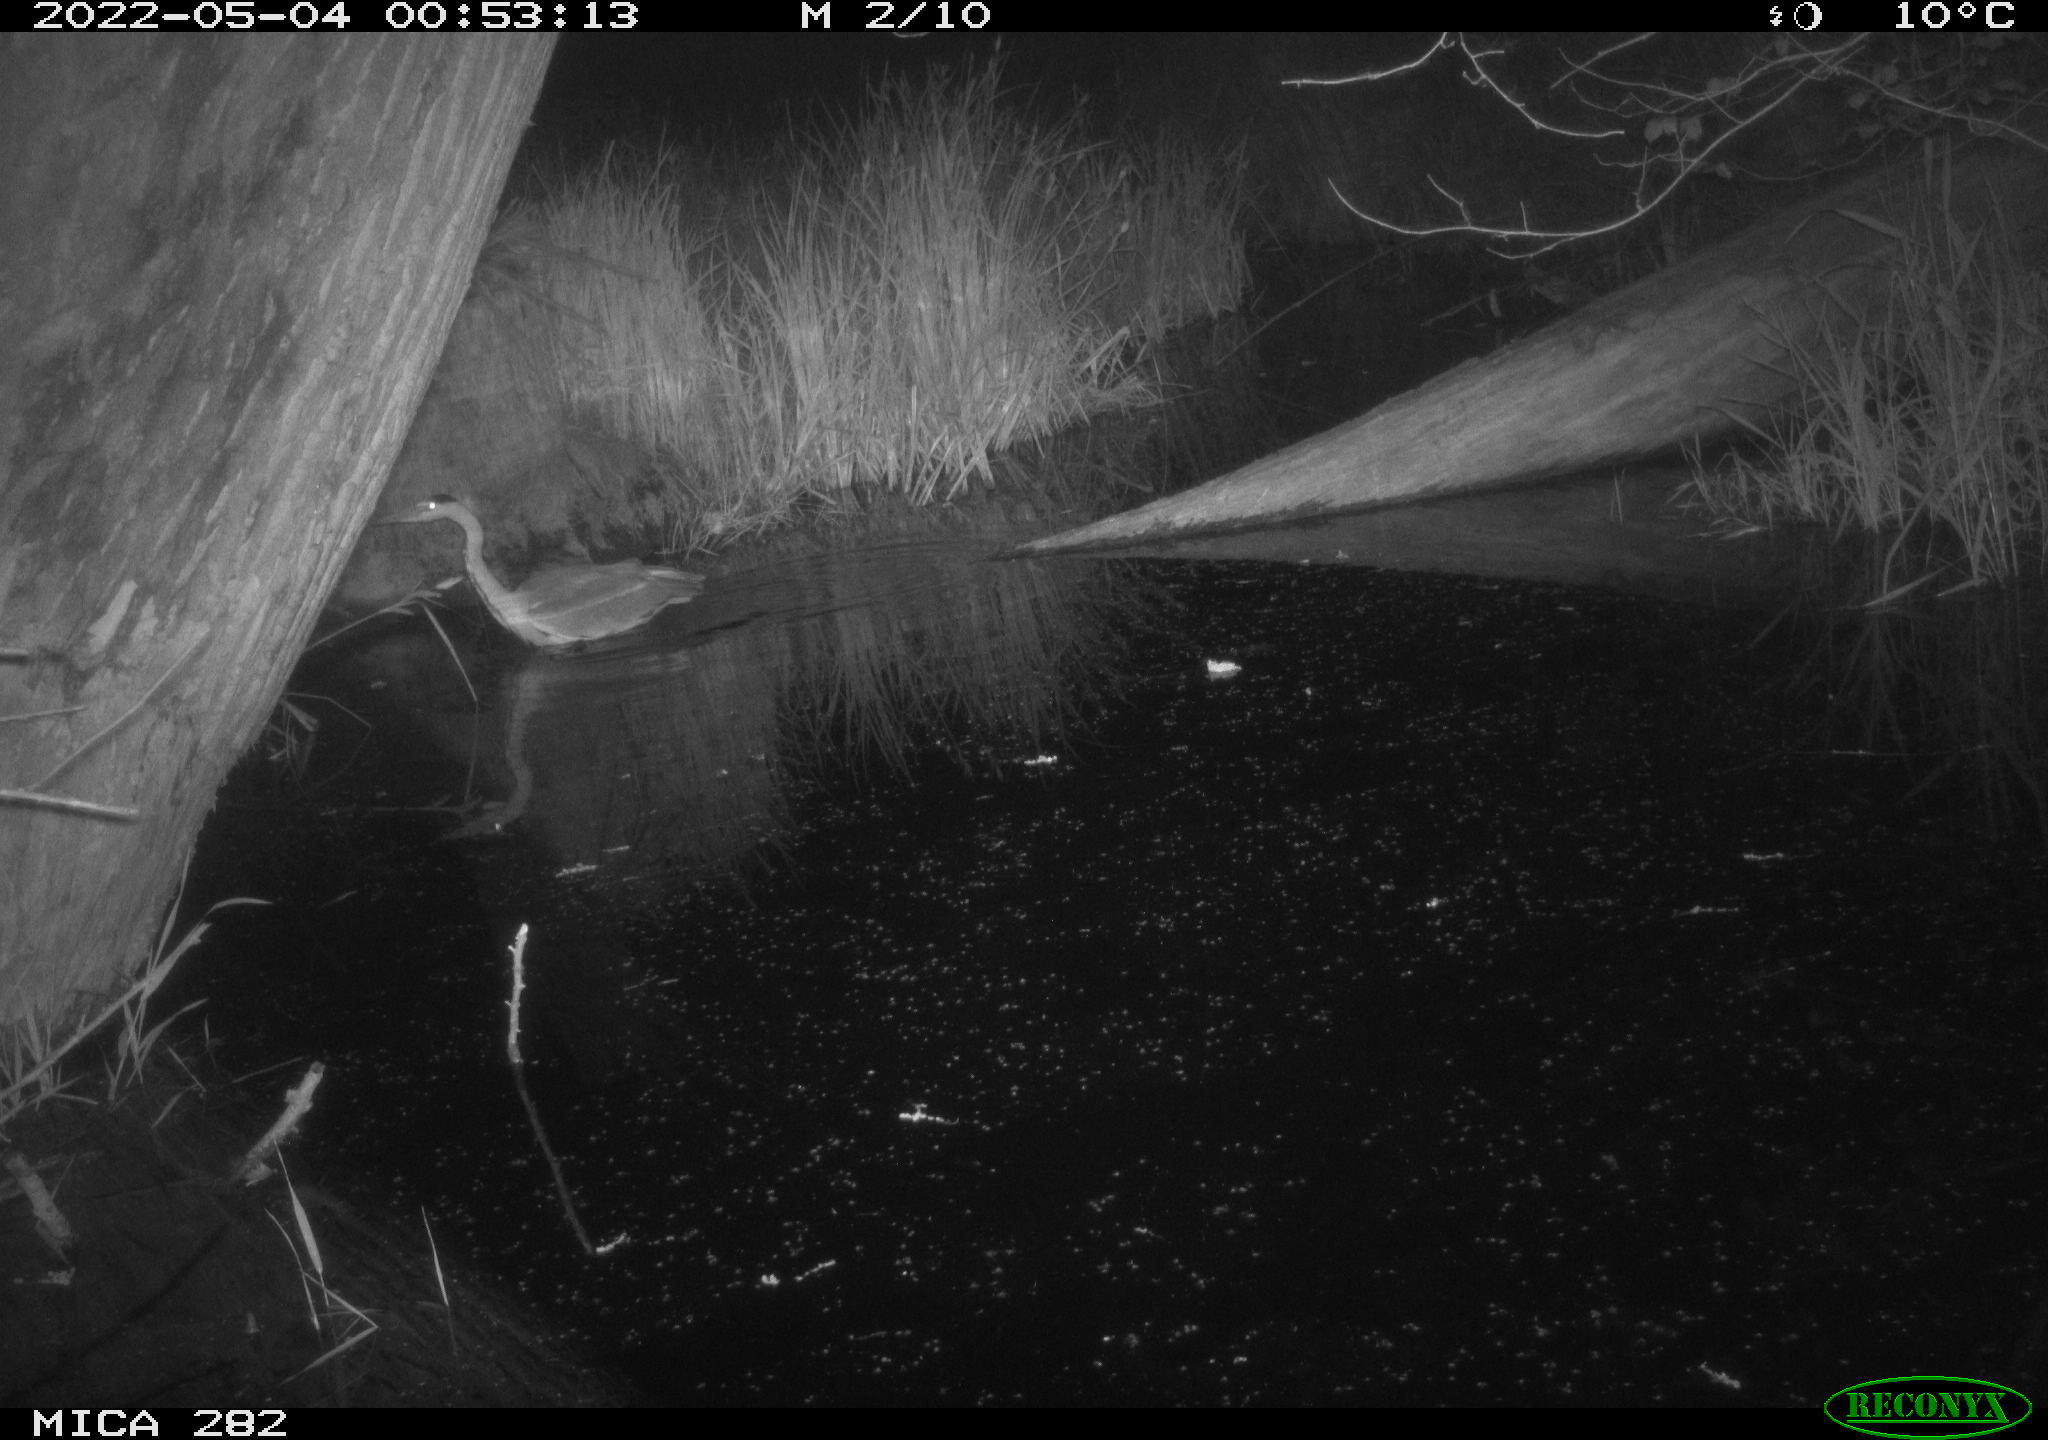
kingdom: Animalia
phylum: Chordata
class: Aves
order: Pelecaniformes
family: Ardeidae
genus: Ardea
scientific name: Ardea cinerea
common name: Grey heron
